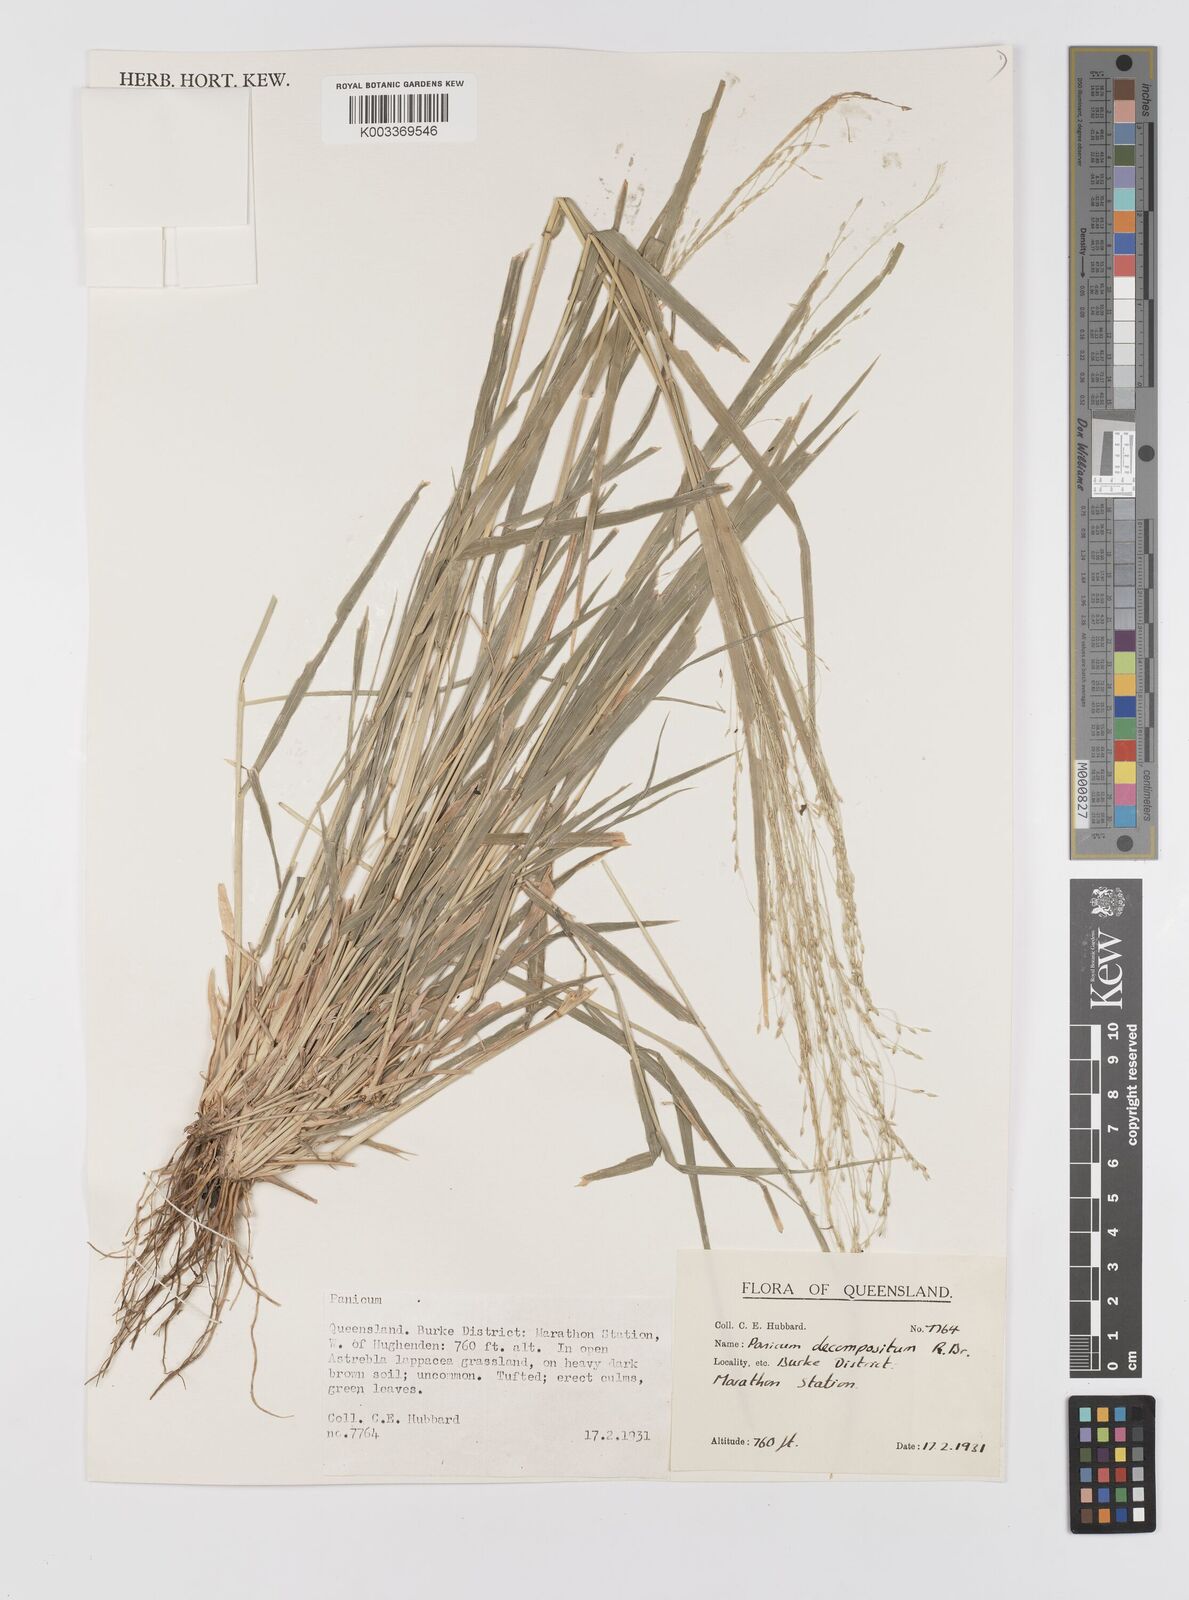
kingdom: Plantae
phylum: Tracheophyta
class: Liliopsida
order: Poales
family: Poaceae
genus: Panicum
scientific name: Panicum decompositum
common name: Australian millet
